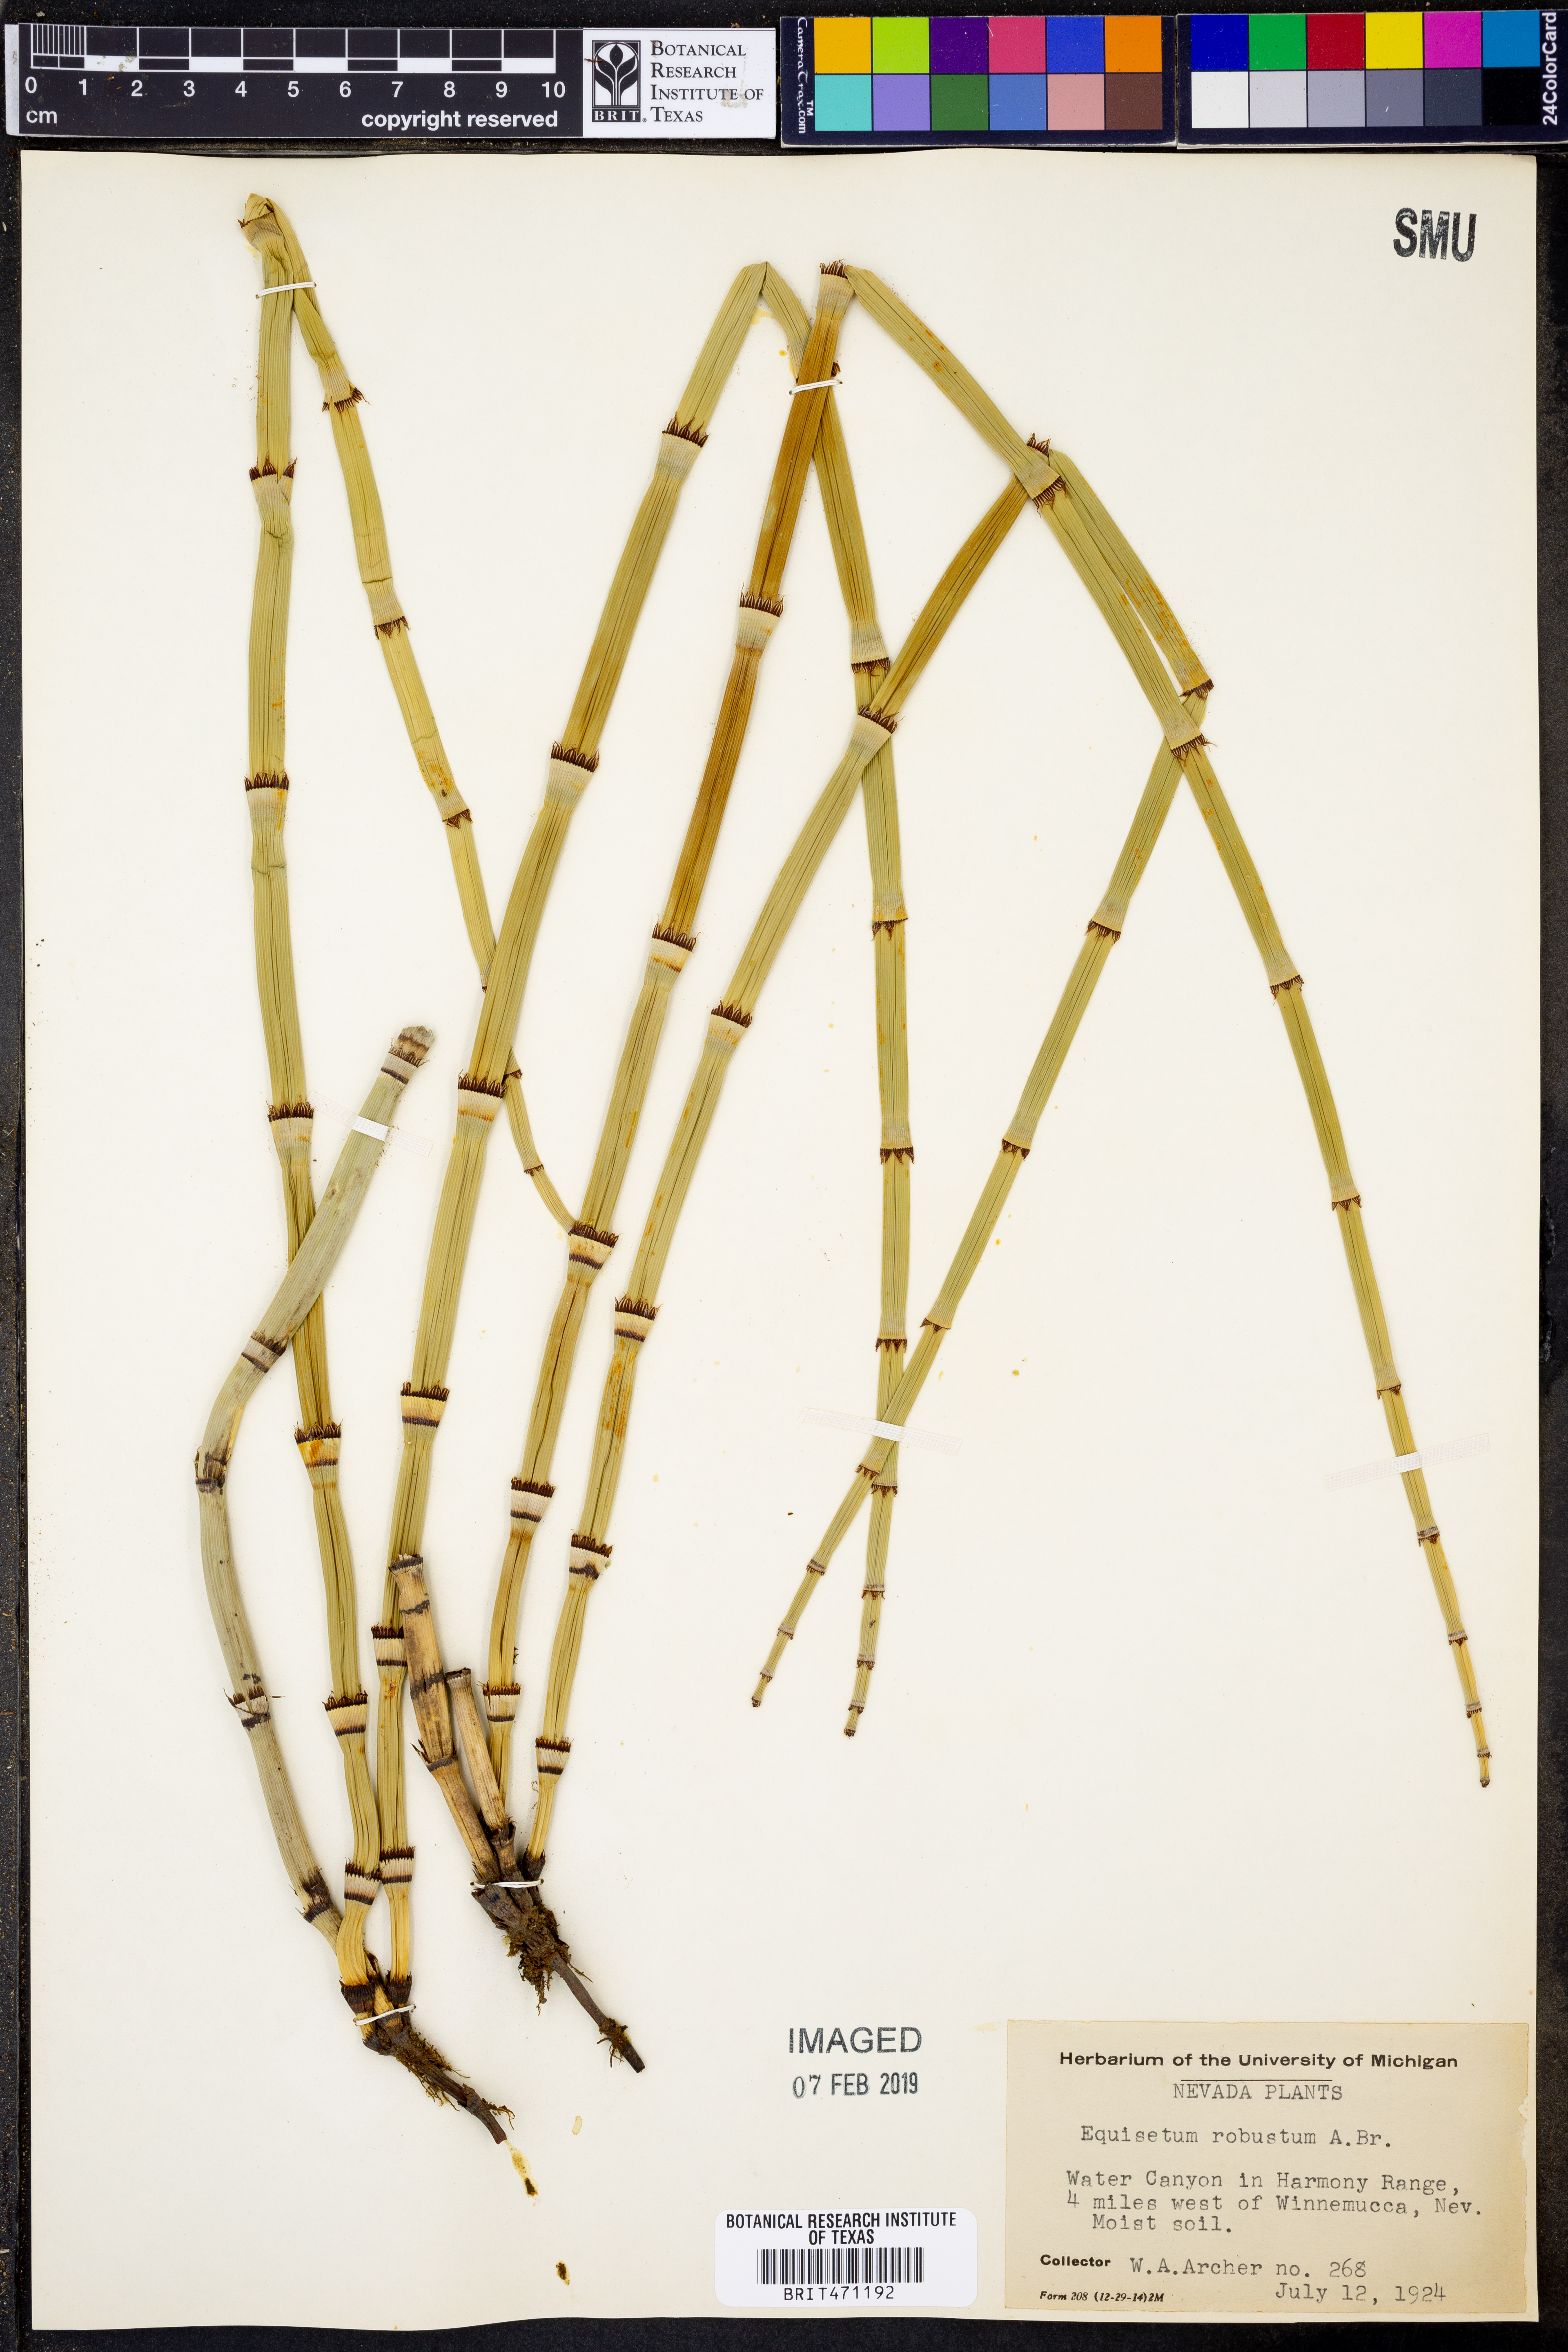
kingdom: Plantae
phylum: Tracheophyta
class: Polypodiopsida
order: Equisetales
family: Equisetaceae
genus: Equisetum
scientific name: Equisetum praealtum
